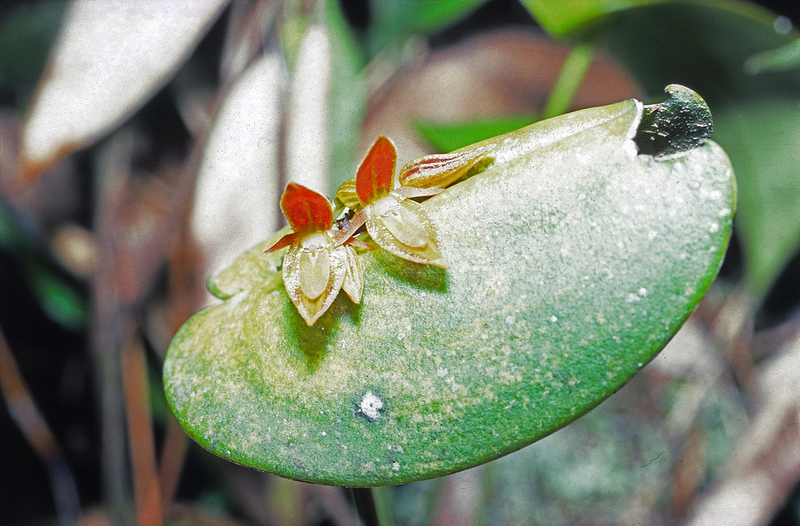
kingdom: Plantae
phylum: Tracheophyta
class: Liliopsida
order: Asparagales
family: Orchidaceae
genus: Pleurothallis
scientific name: Pleurothallis
